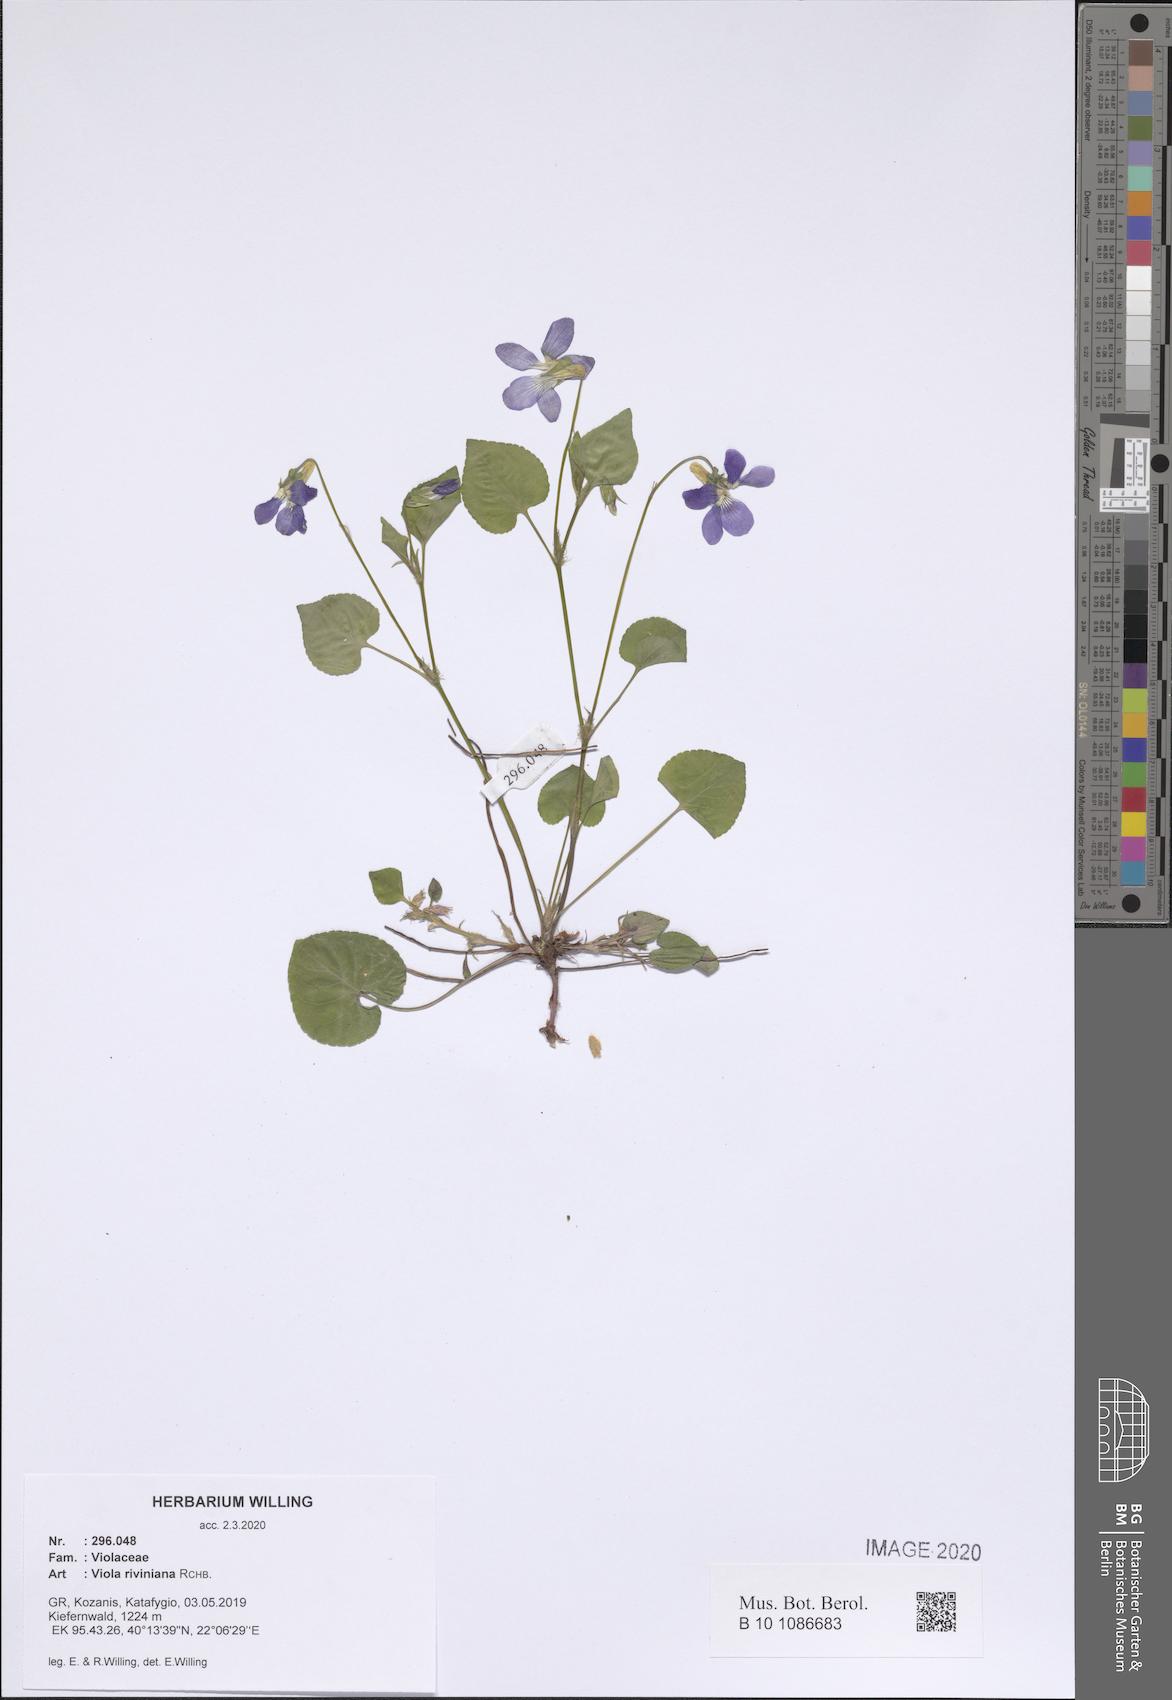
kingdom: Plantae
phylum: Tracheophyta
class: Magnoliopsida
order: Malpighiales
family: Violaceae
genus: Viola
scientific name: Viola riviniana
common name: Common dog-violet
